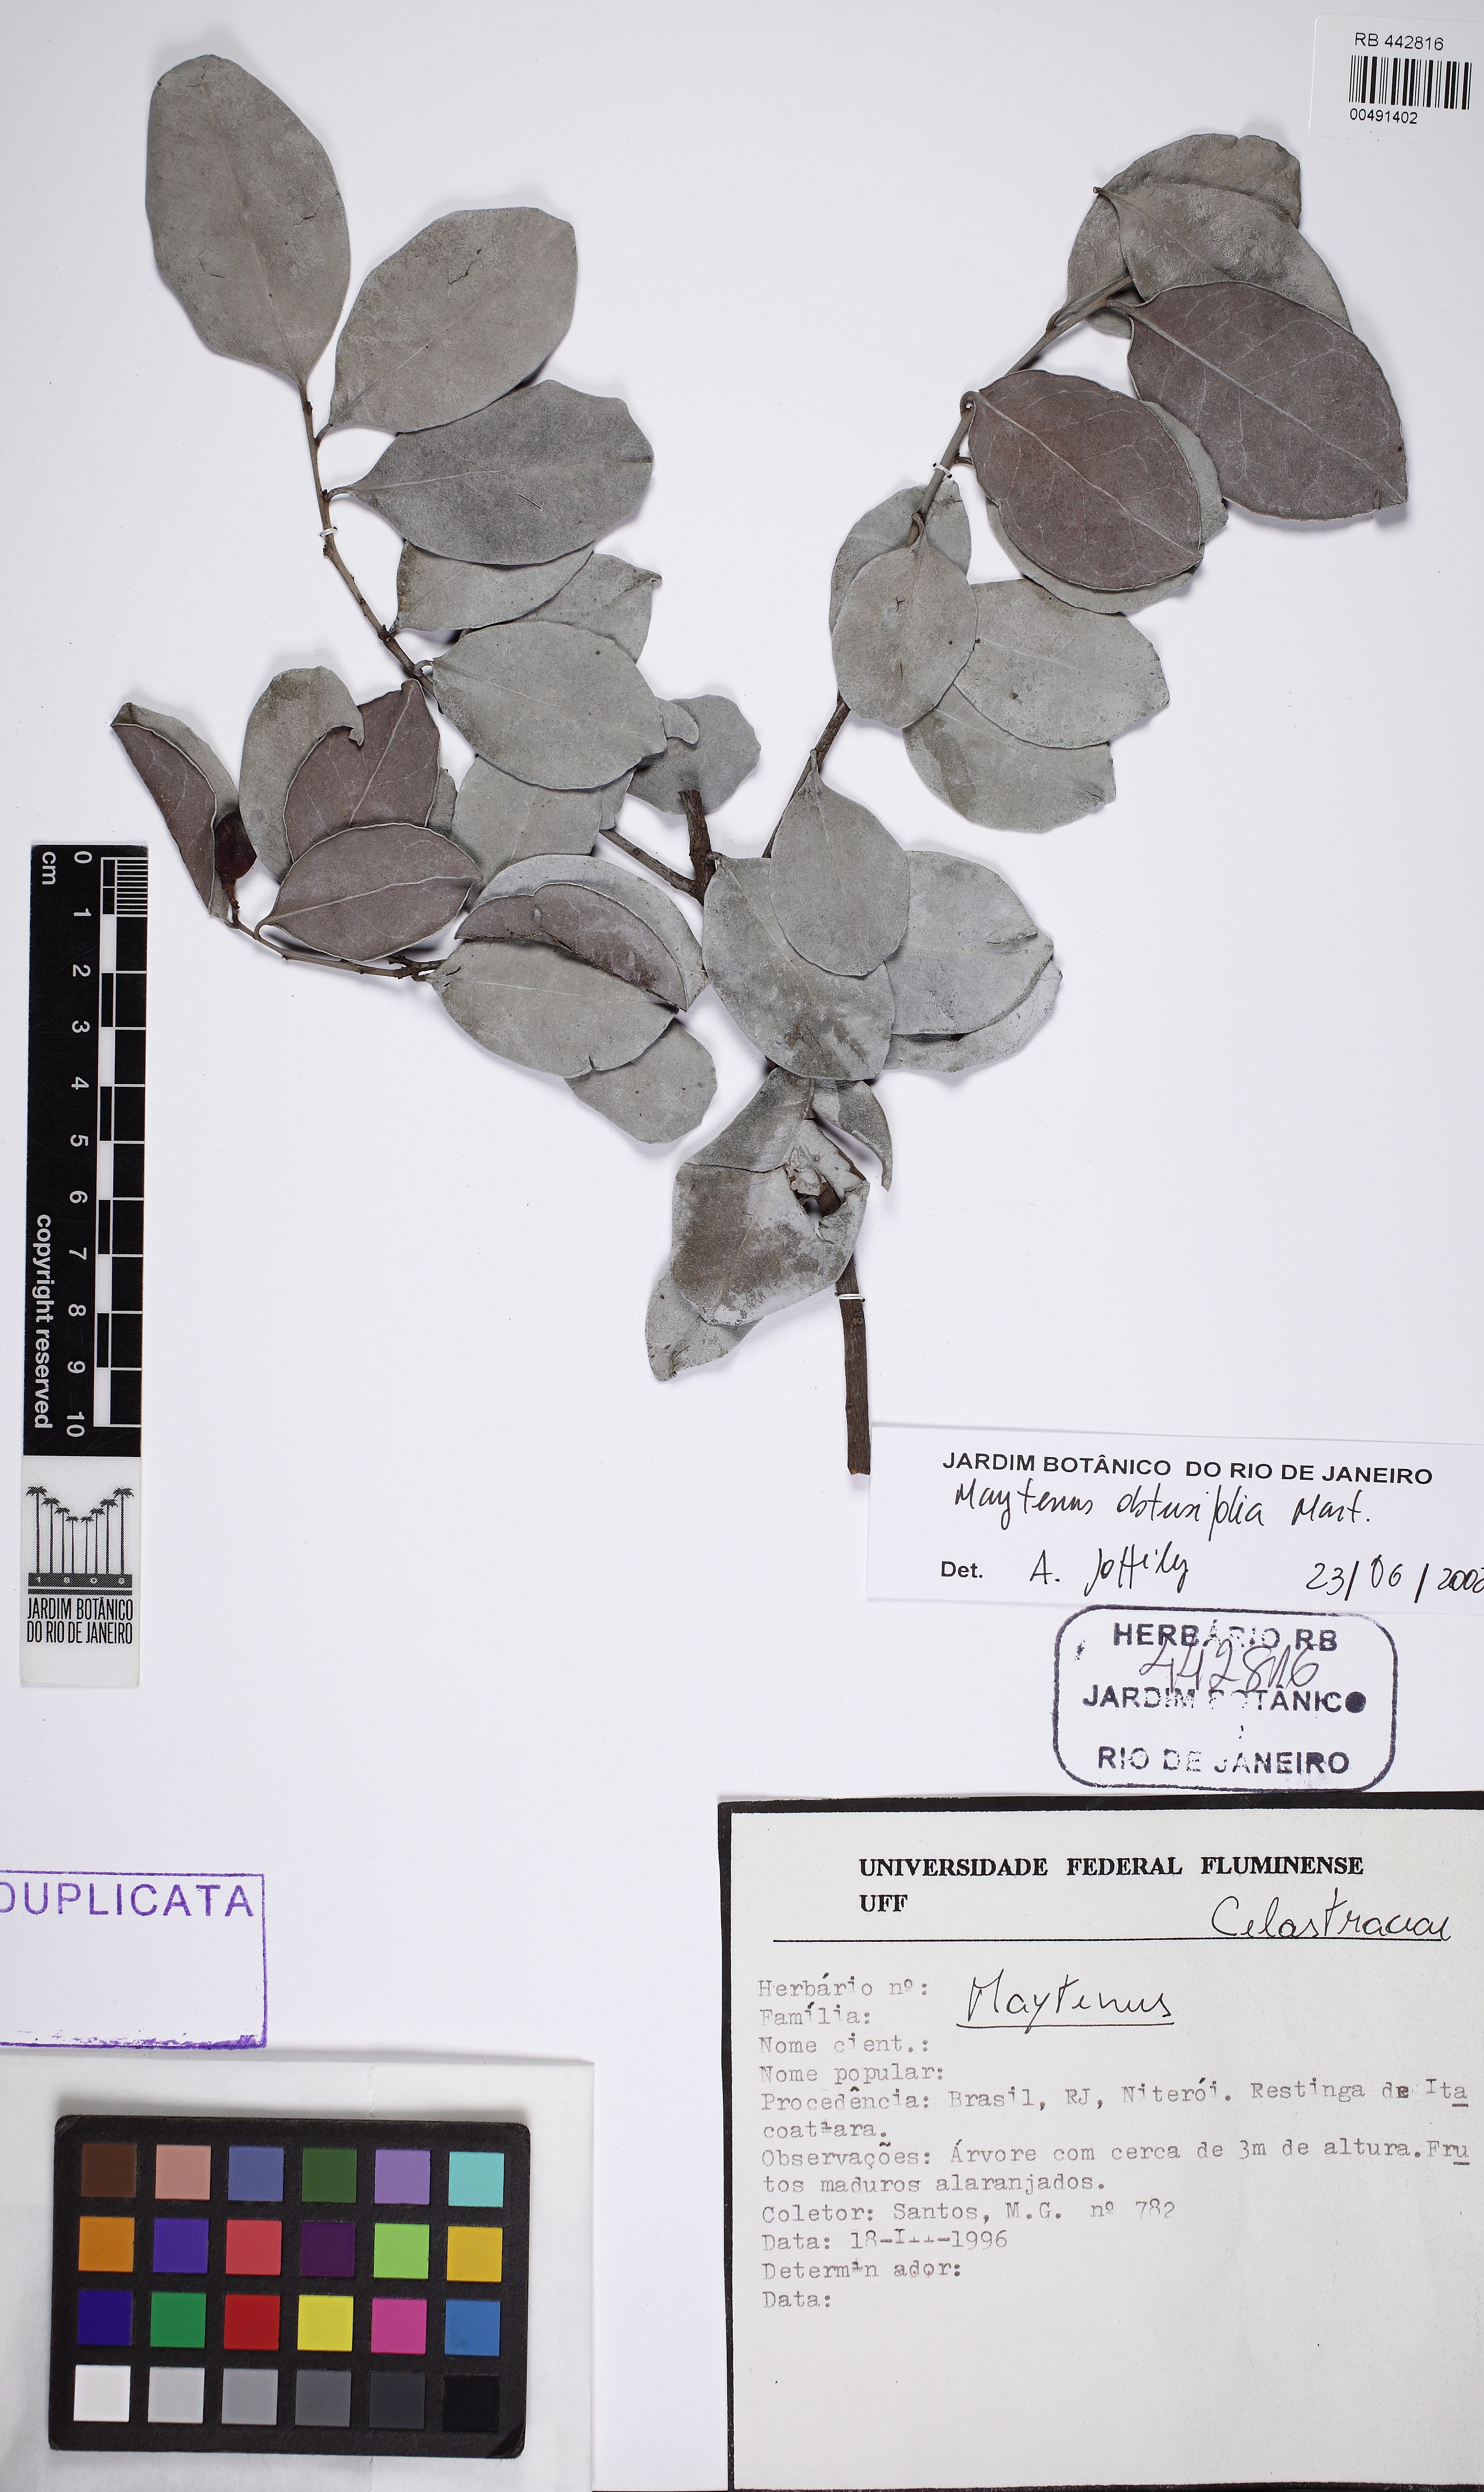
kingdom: Plantae
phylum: Tracheophyta
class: Magnoliopsida
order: Celastrales
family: Celastraceae
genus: Monteverdia
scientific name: Monteverdia obtusifolia
